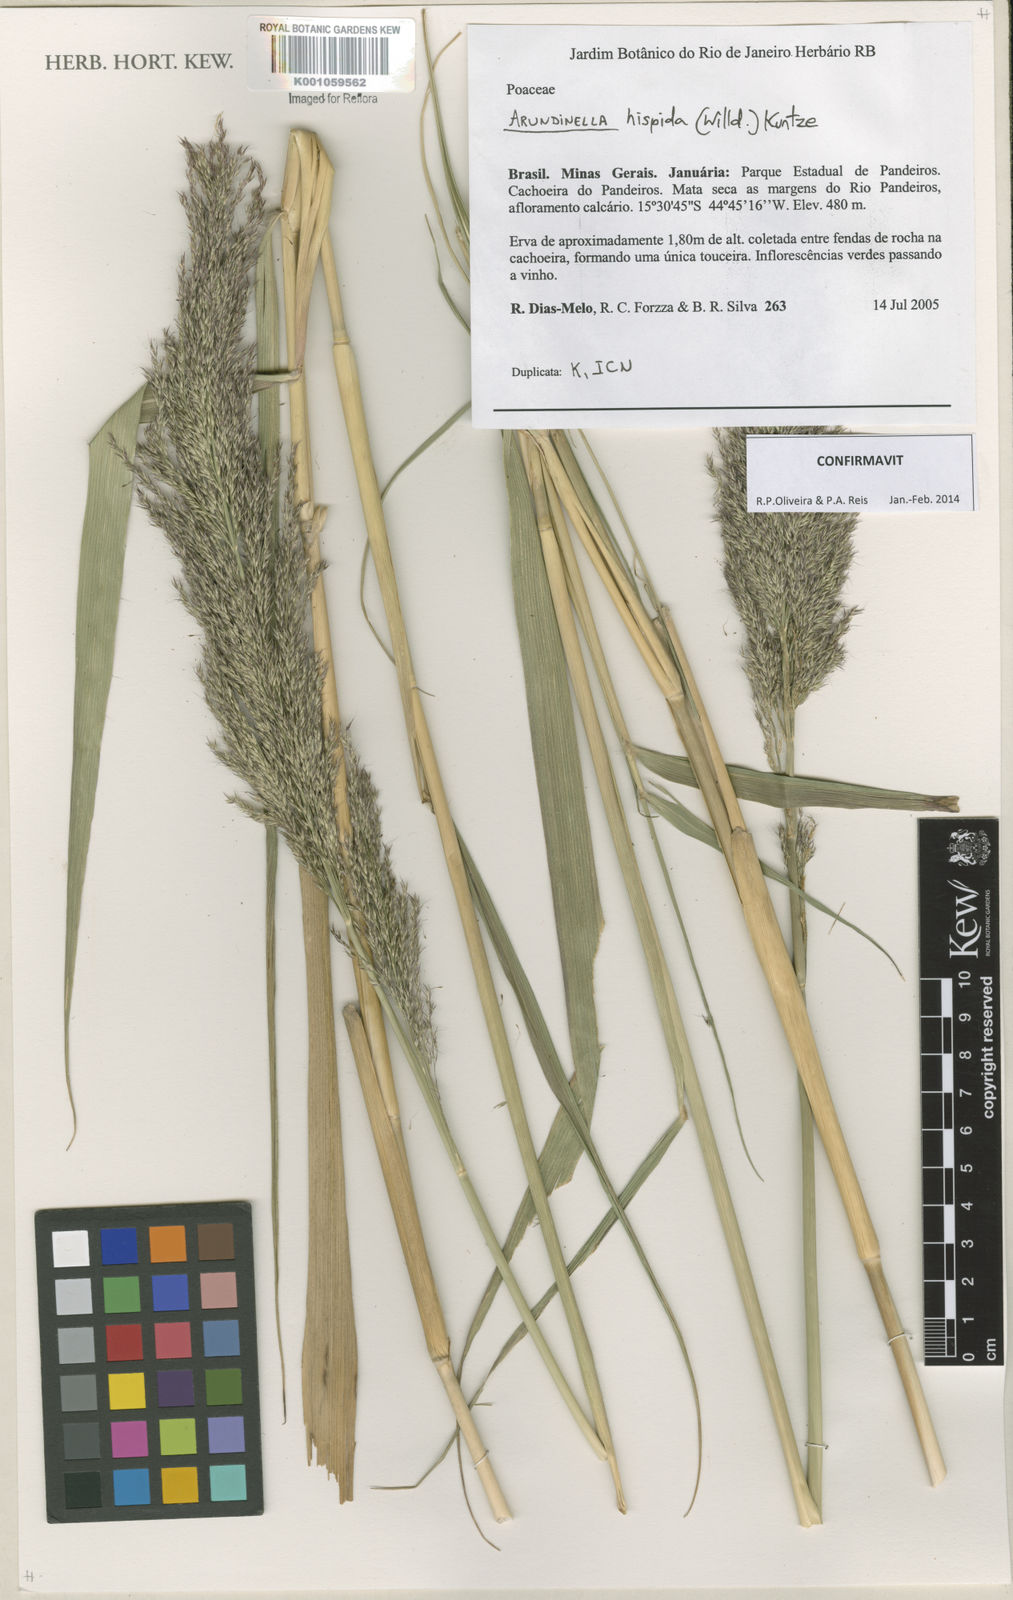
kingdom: Plantae
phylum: Tracheophyta
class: Liliopsida
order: Poales
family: Poaceae
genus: Arundinella
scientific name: Arundinella hispida
